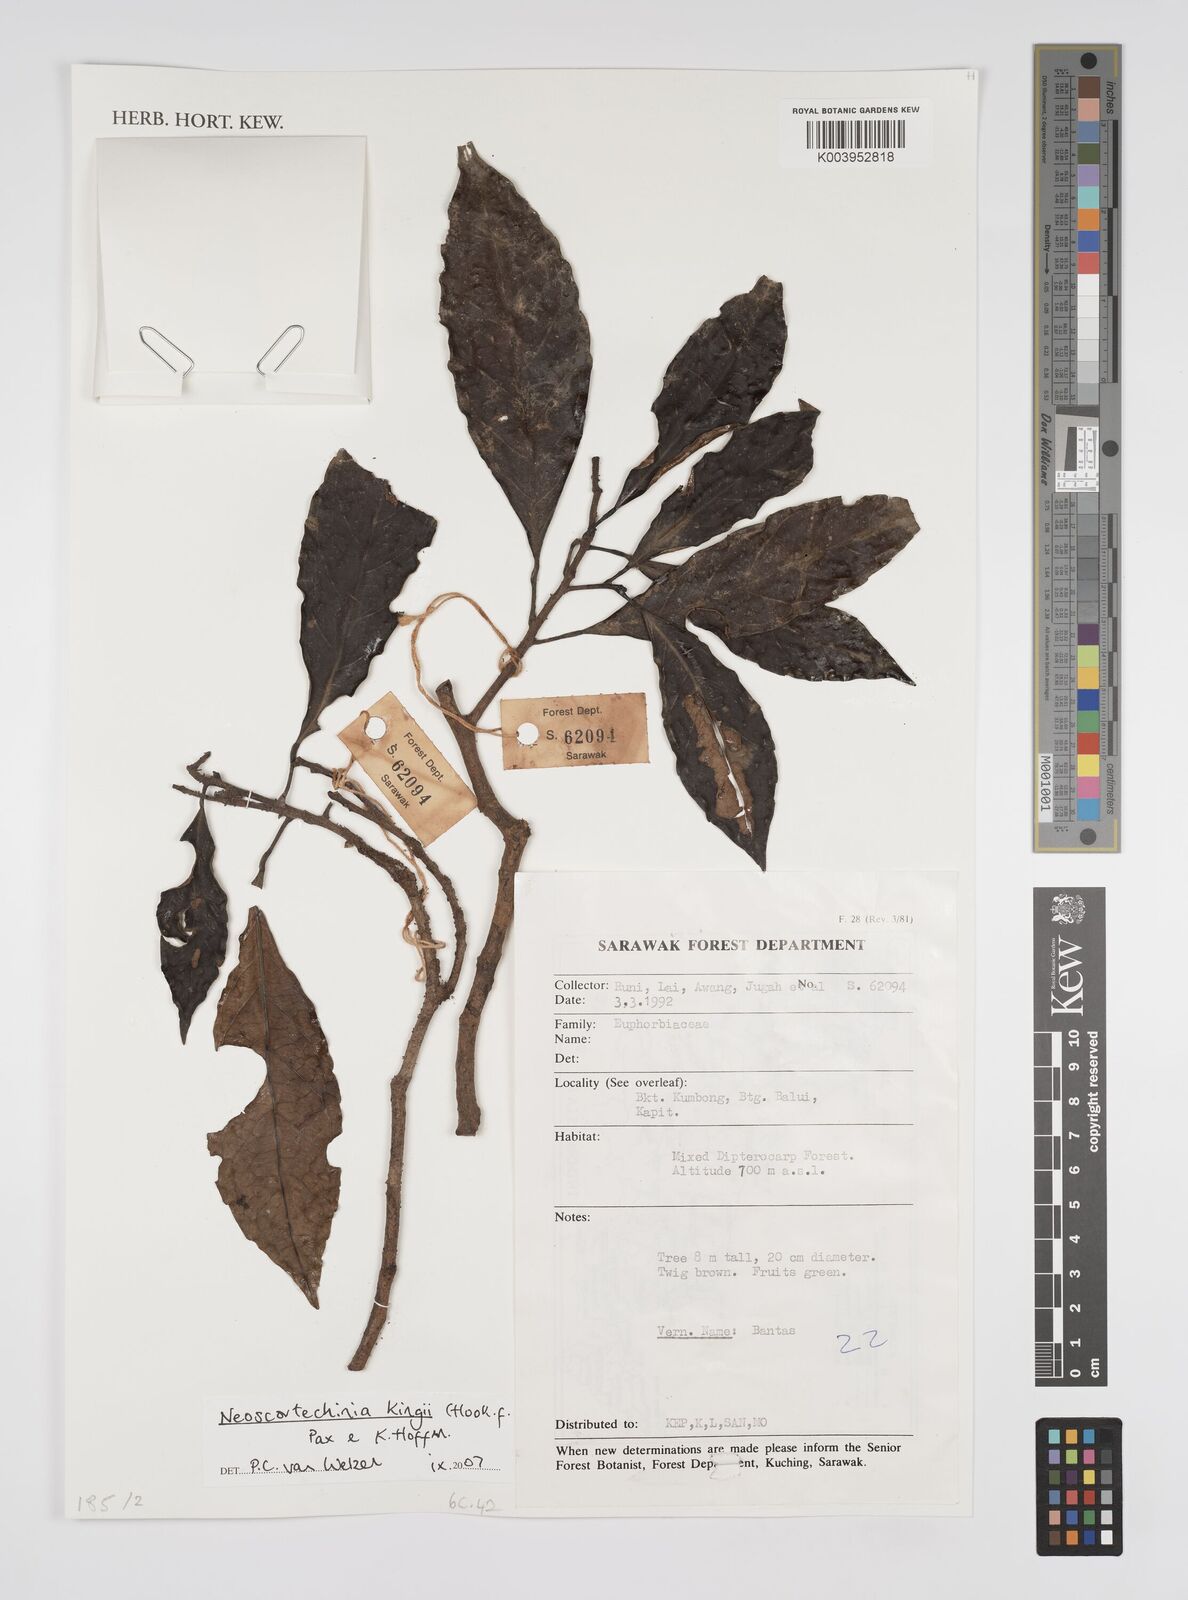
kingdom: Plantae
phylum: Tracheophyta
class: Magnoliopsida
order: Malpighiales
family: Euphorbiaceae
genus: Neoscortechinia
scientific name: Neoscortechinia kingii
